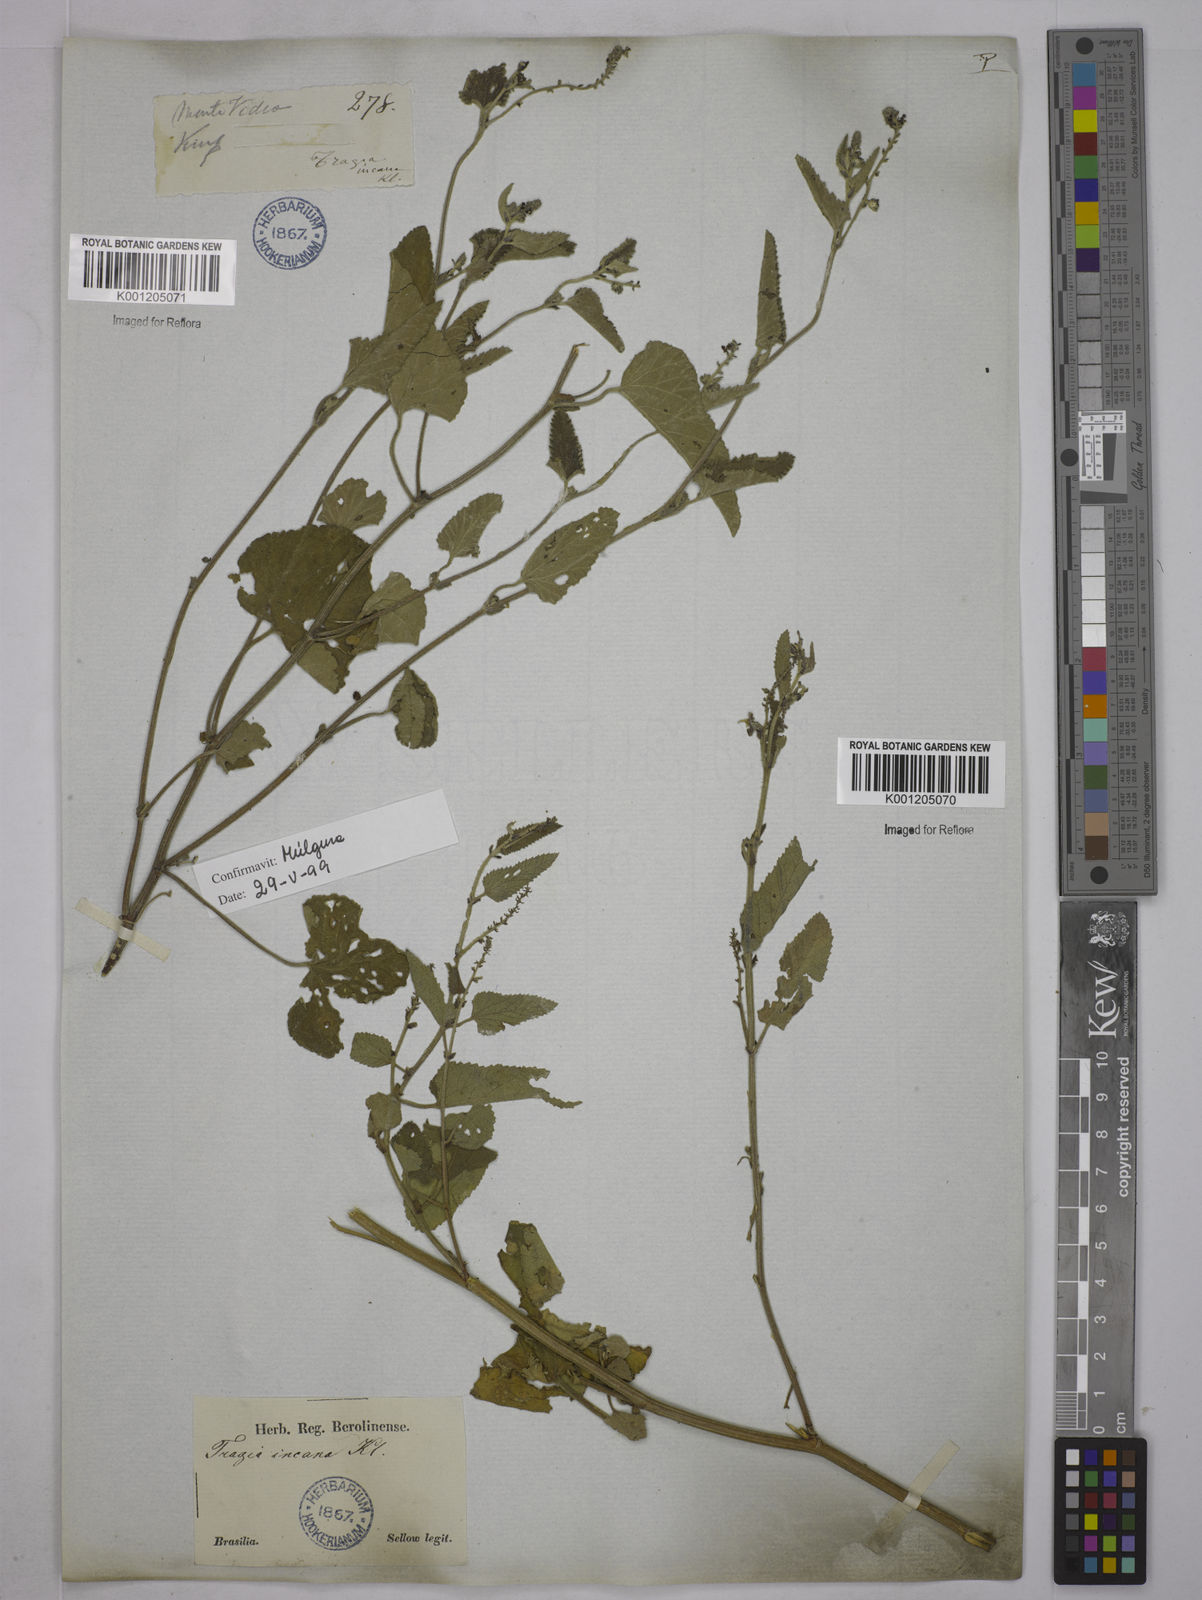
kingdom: Plantae
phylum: Tracheophyta
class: Magnoliopsida
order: Malpighiales
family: Euphorbiaceae
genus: Tragia
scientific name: Tragia
